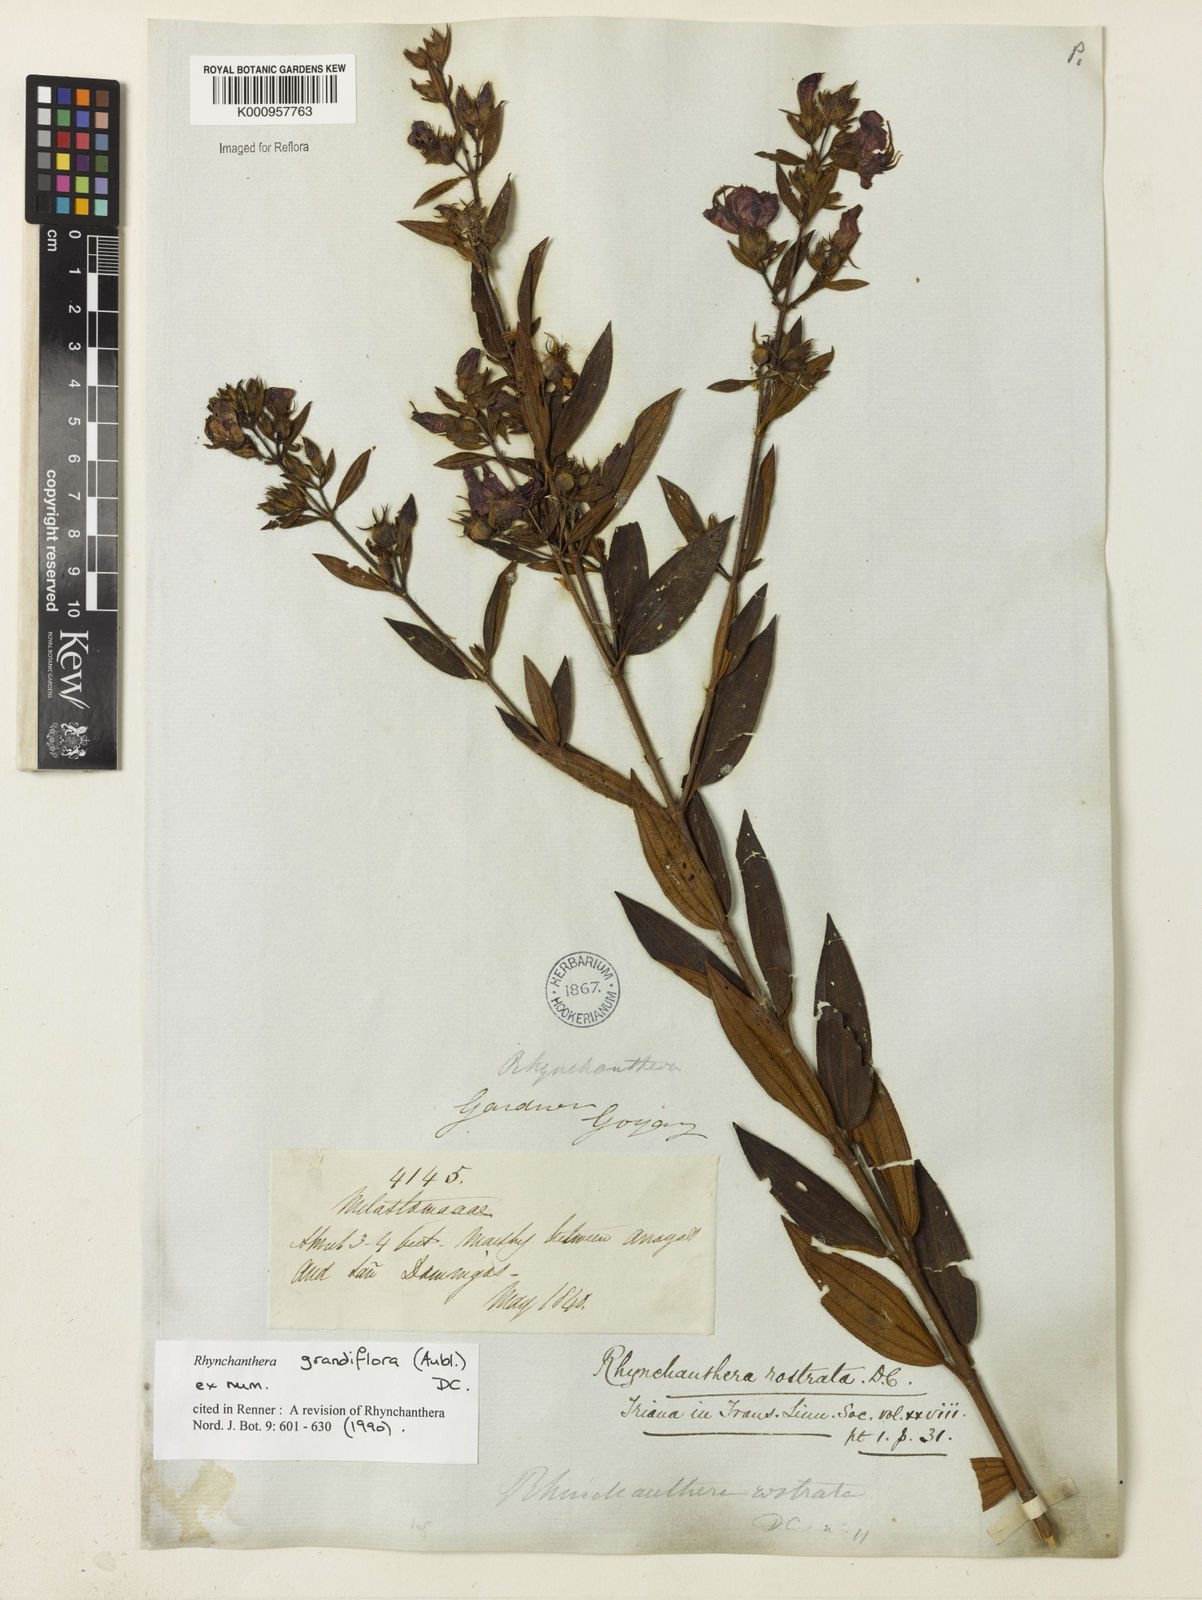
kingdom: Plantae
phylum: Tracheophyta
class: Magnoliopsida
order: Myrtales
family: Melastomataceae
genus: Rhynchanthera
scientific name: Rhynchanthera grandiflora
